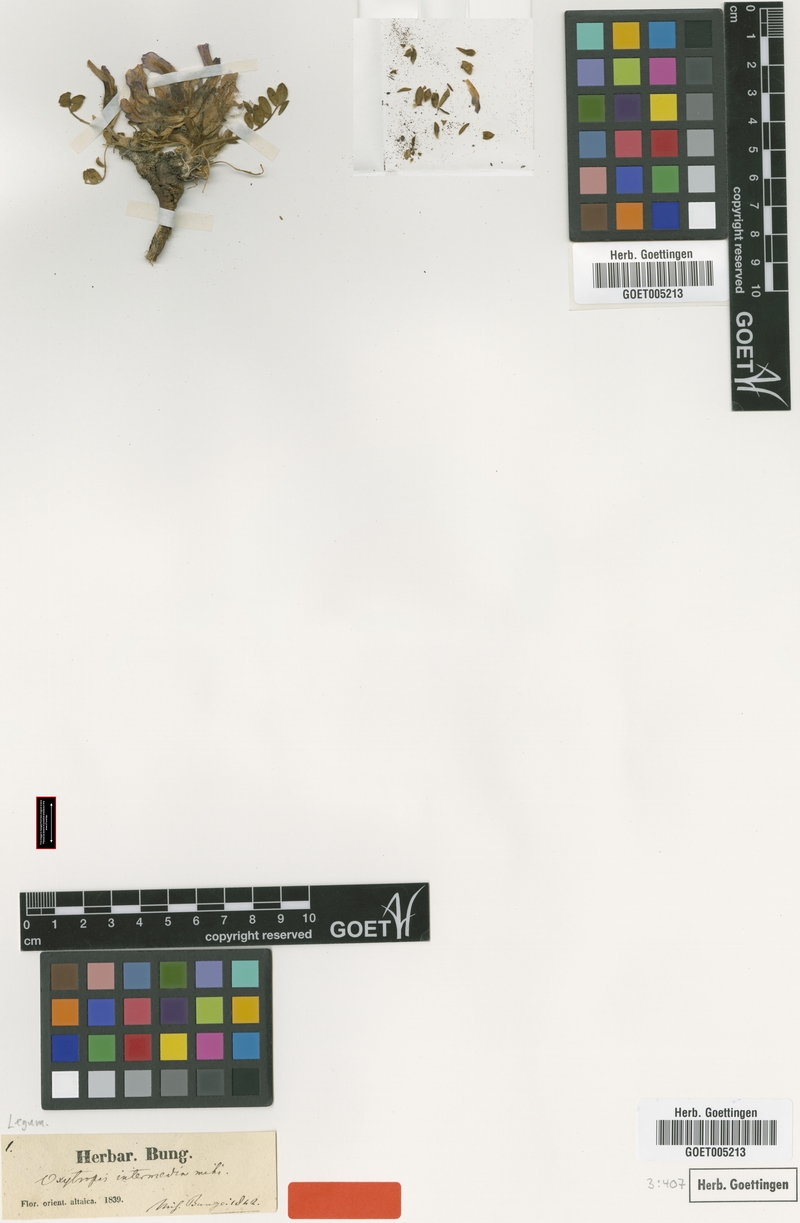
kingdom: Plantae
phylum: Tracheophyta
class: Magnoliopsida
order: Fabales
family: Fabaceae
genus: Oxytropis
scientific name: Oxytropis intermedia
